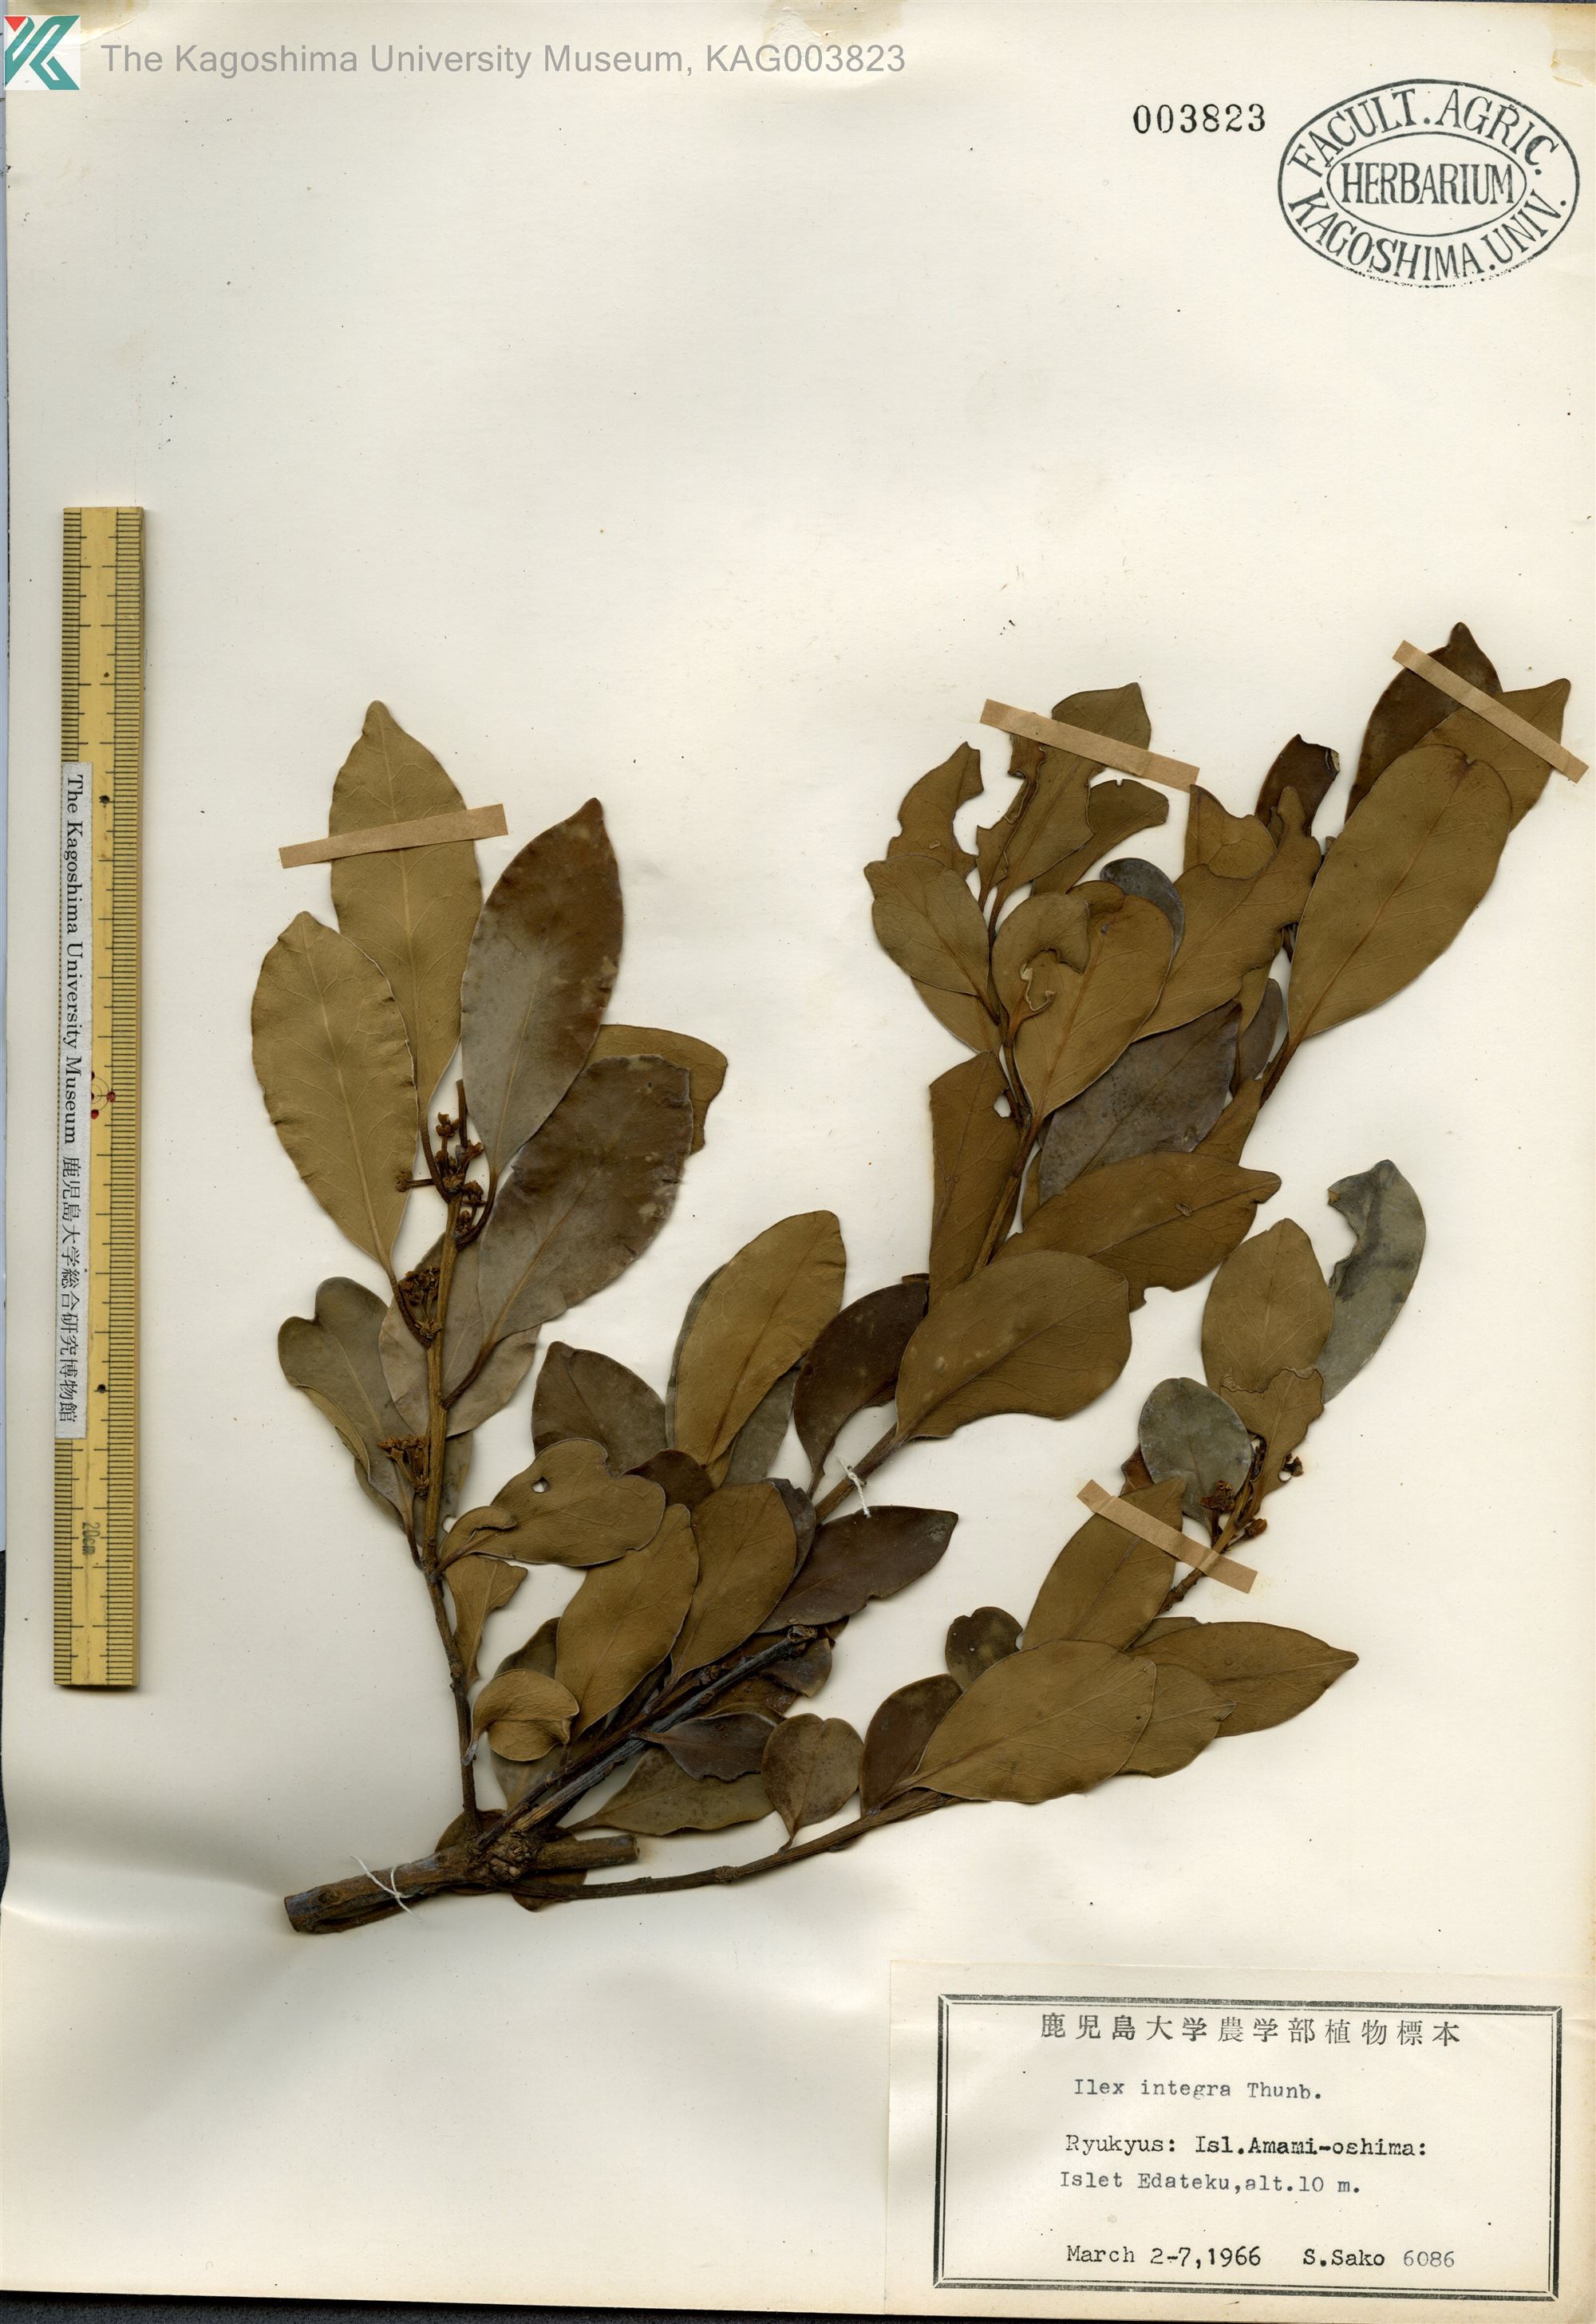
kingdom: Plantae
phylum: Tracheophyta
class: Magnoliopsida
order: Aquifoliales
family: Aquifoliaceae
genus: Ilex
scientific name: Ilex integra
